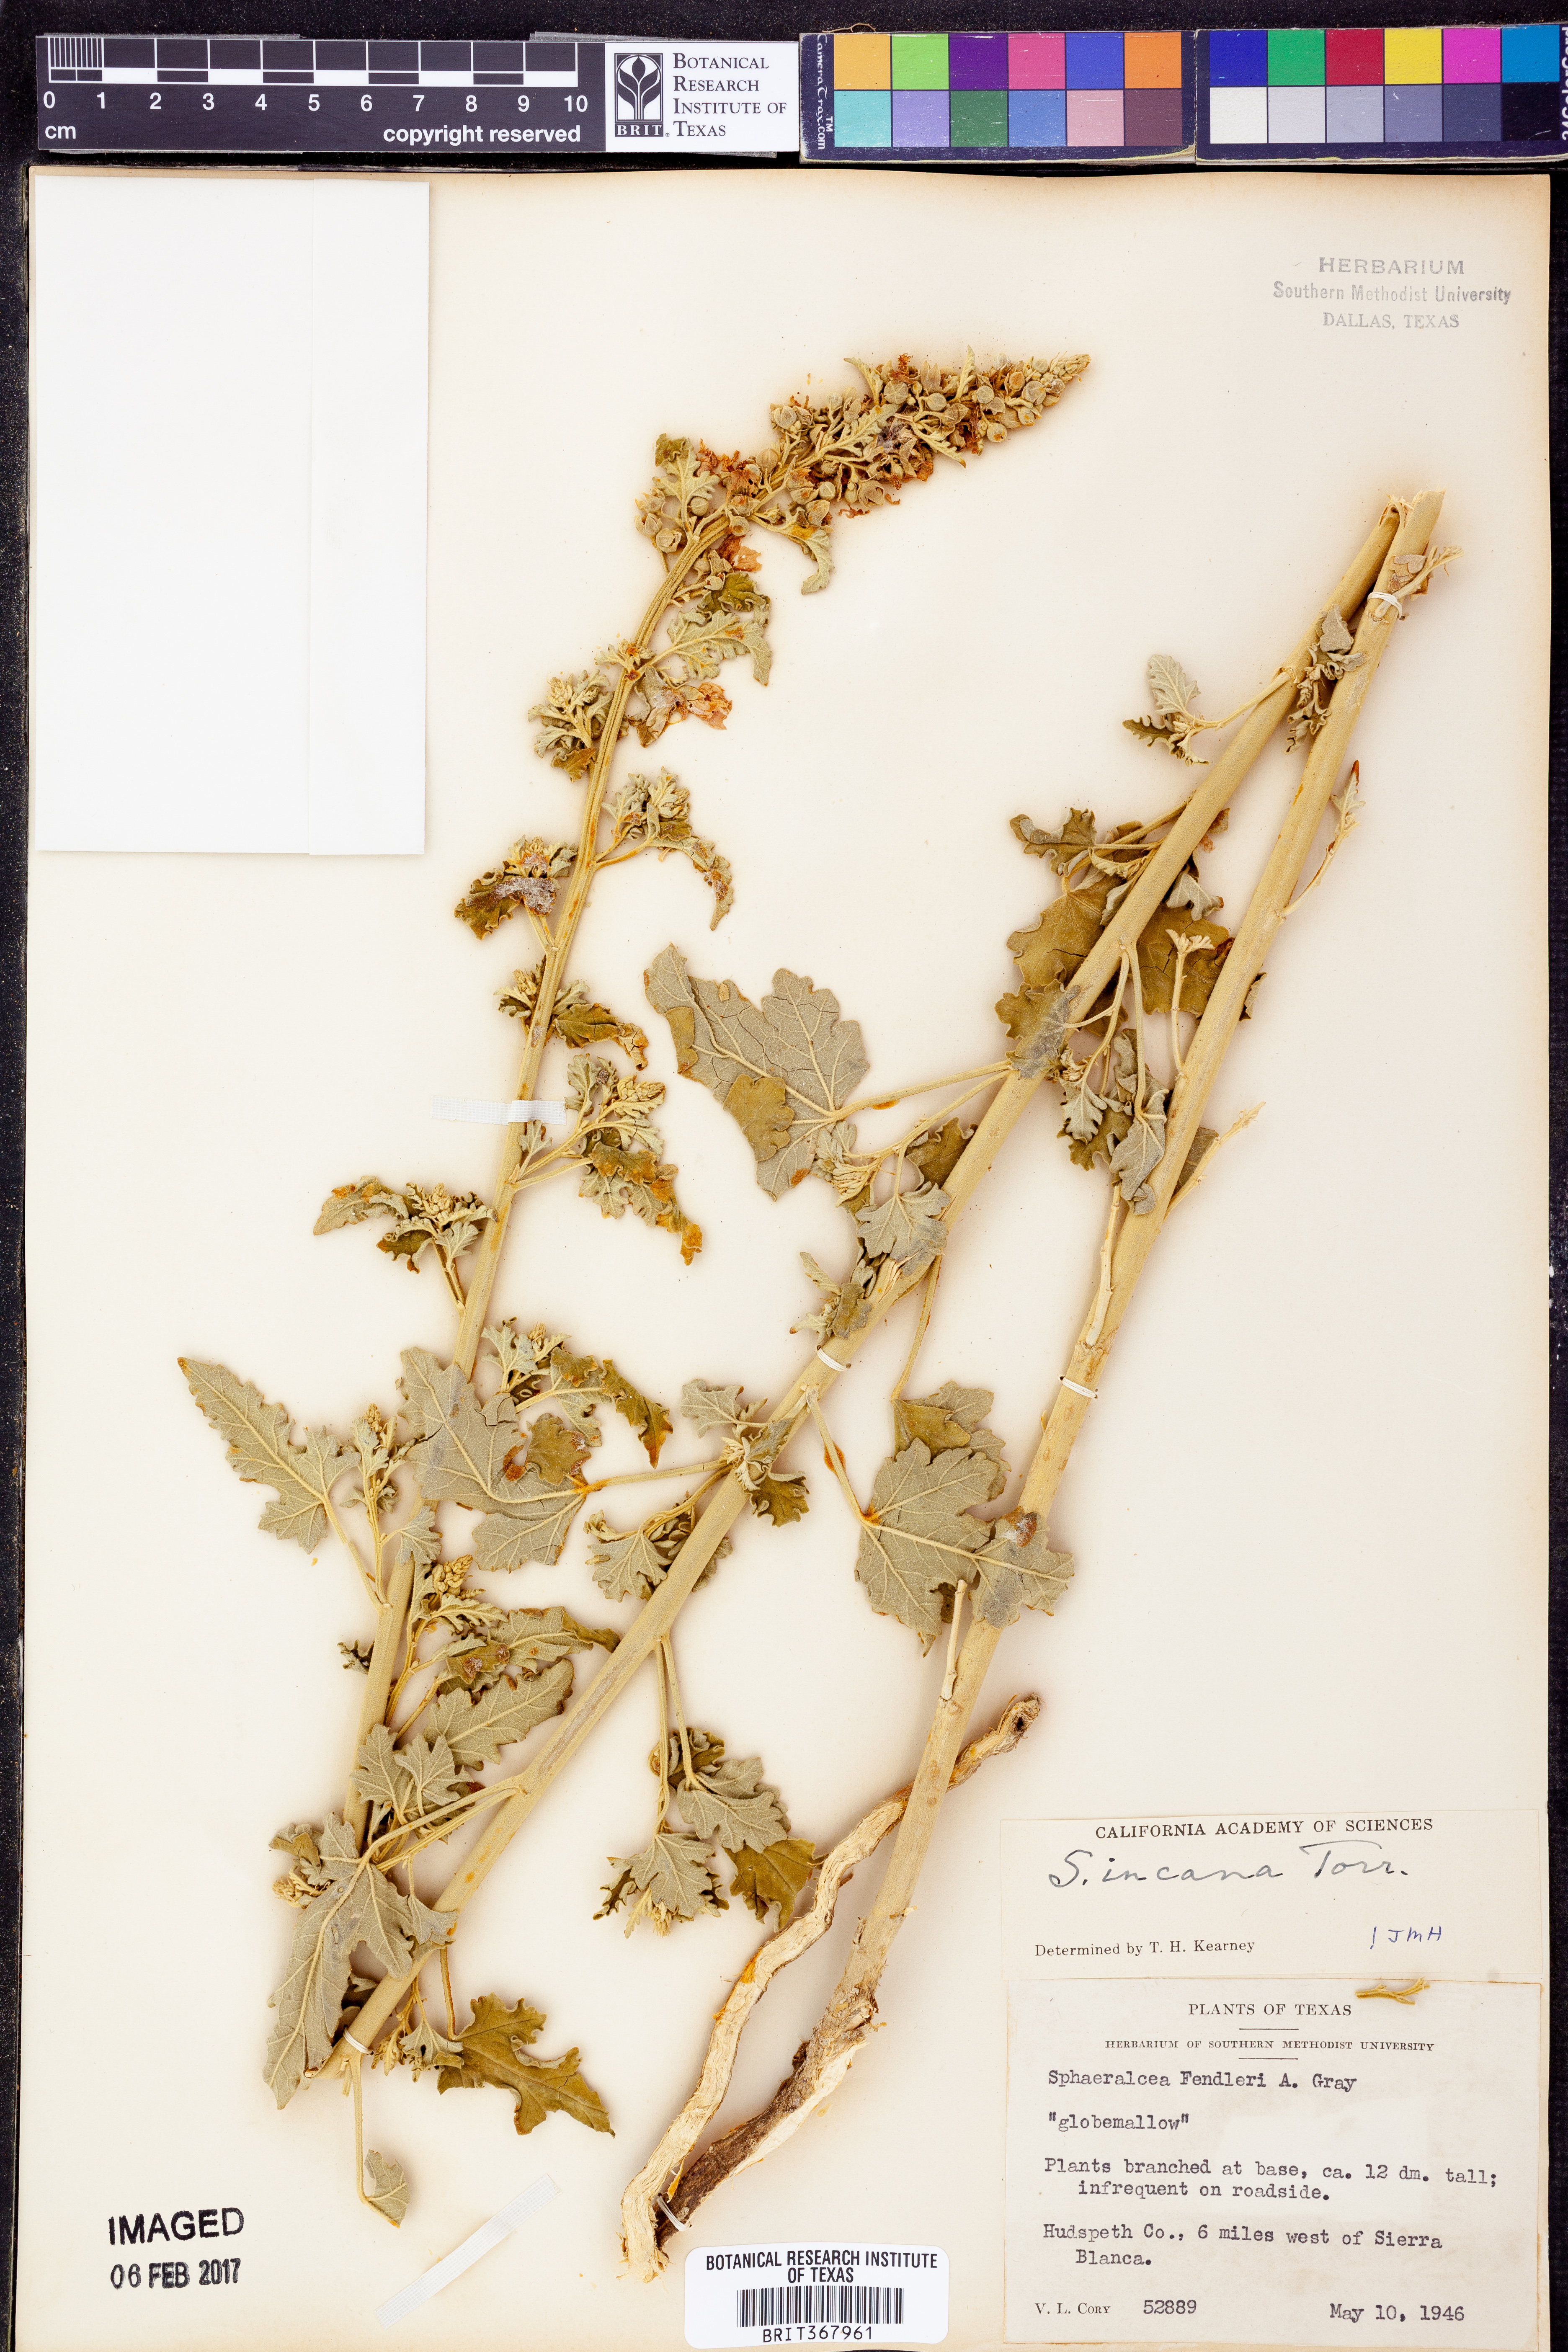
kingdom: Plantae
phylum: Tracheophyta
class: Magnoliopsida
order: Malvales
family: Malvaceae
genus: Sphaeralcea
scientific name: Sphaeralcea incana
